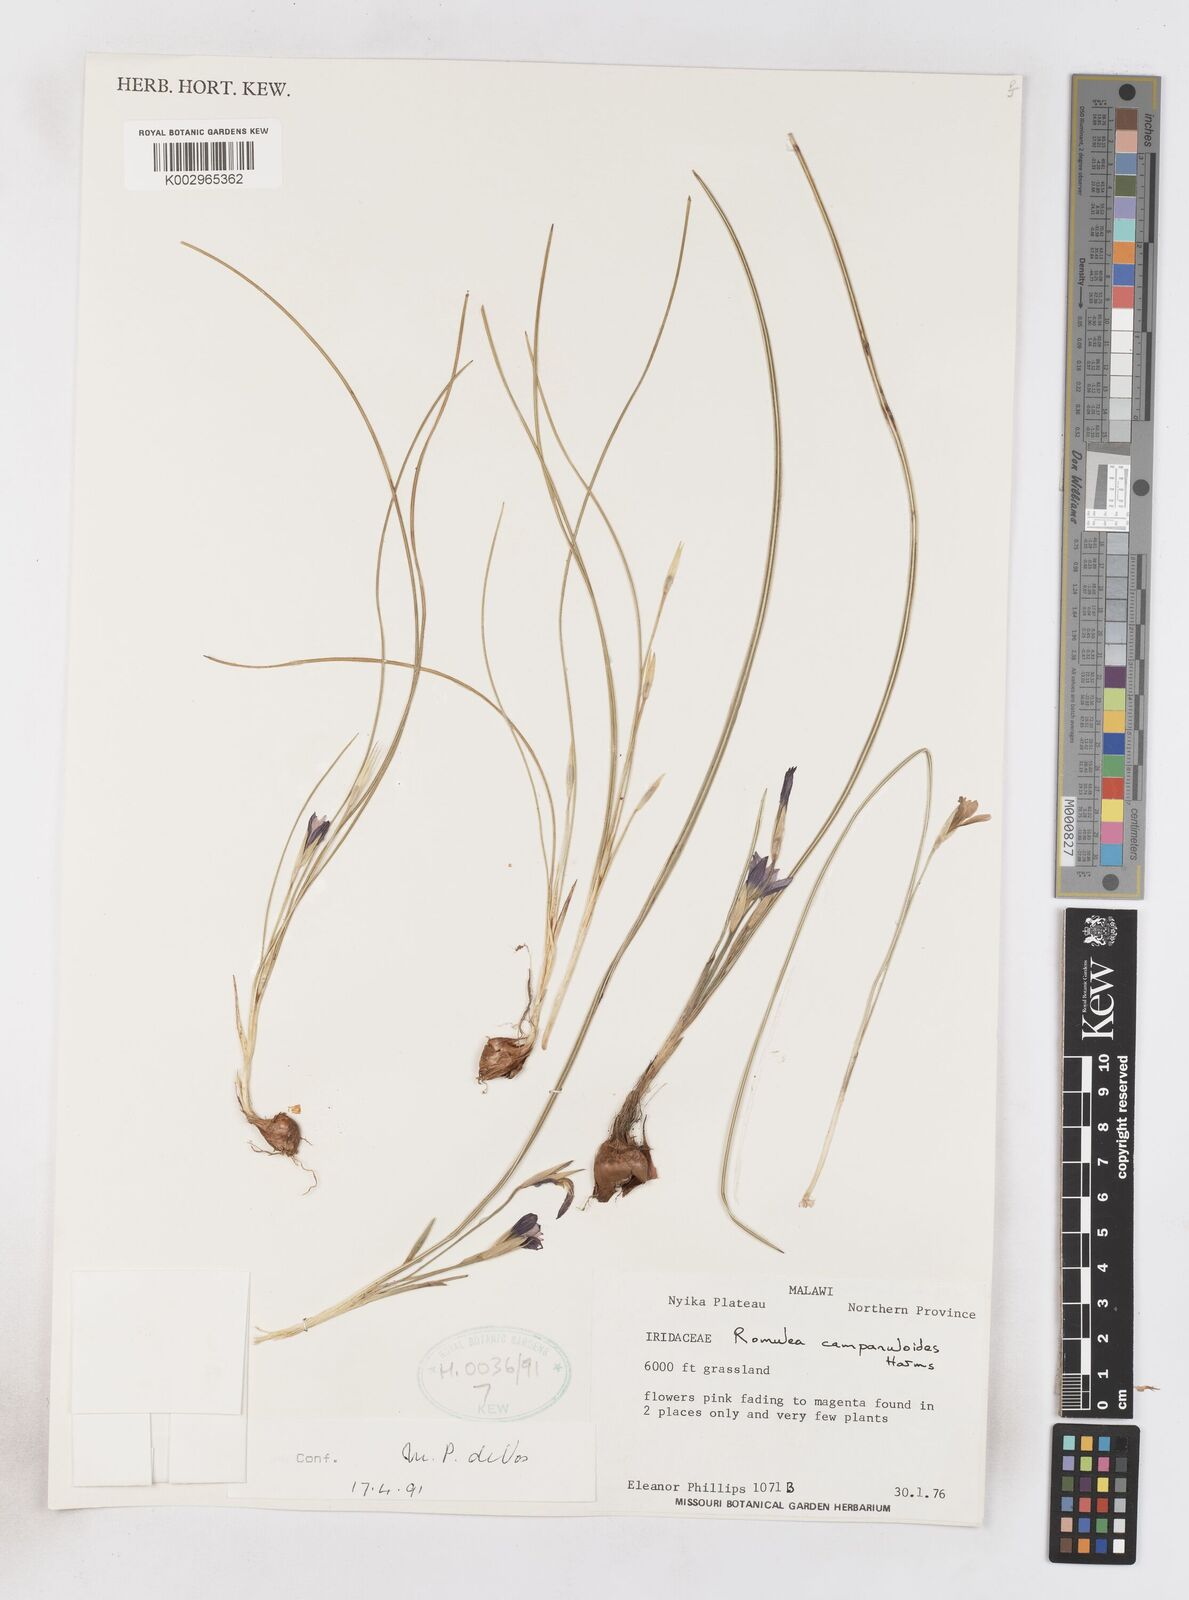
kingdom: Plantae
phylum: Tracheophyta
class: Liliopsida
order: Asparagales
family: Iridaceae
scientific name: Iridaceae
